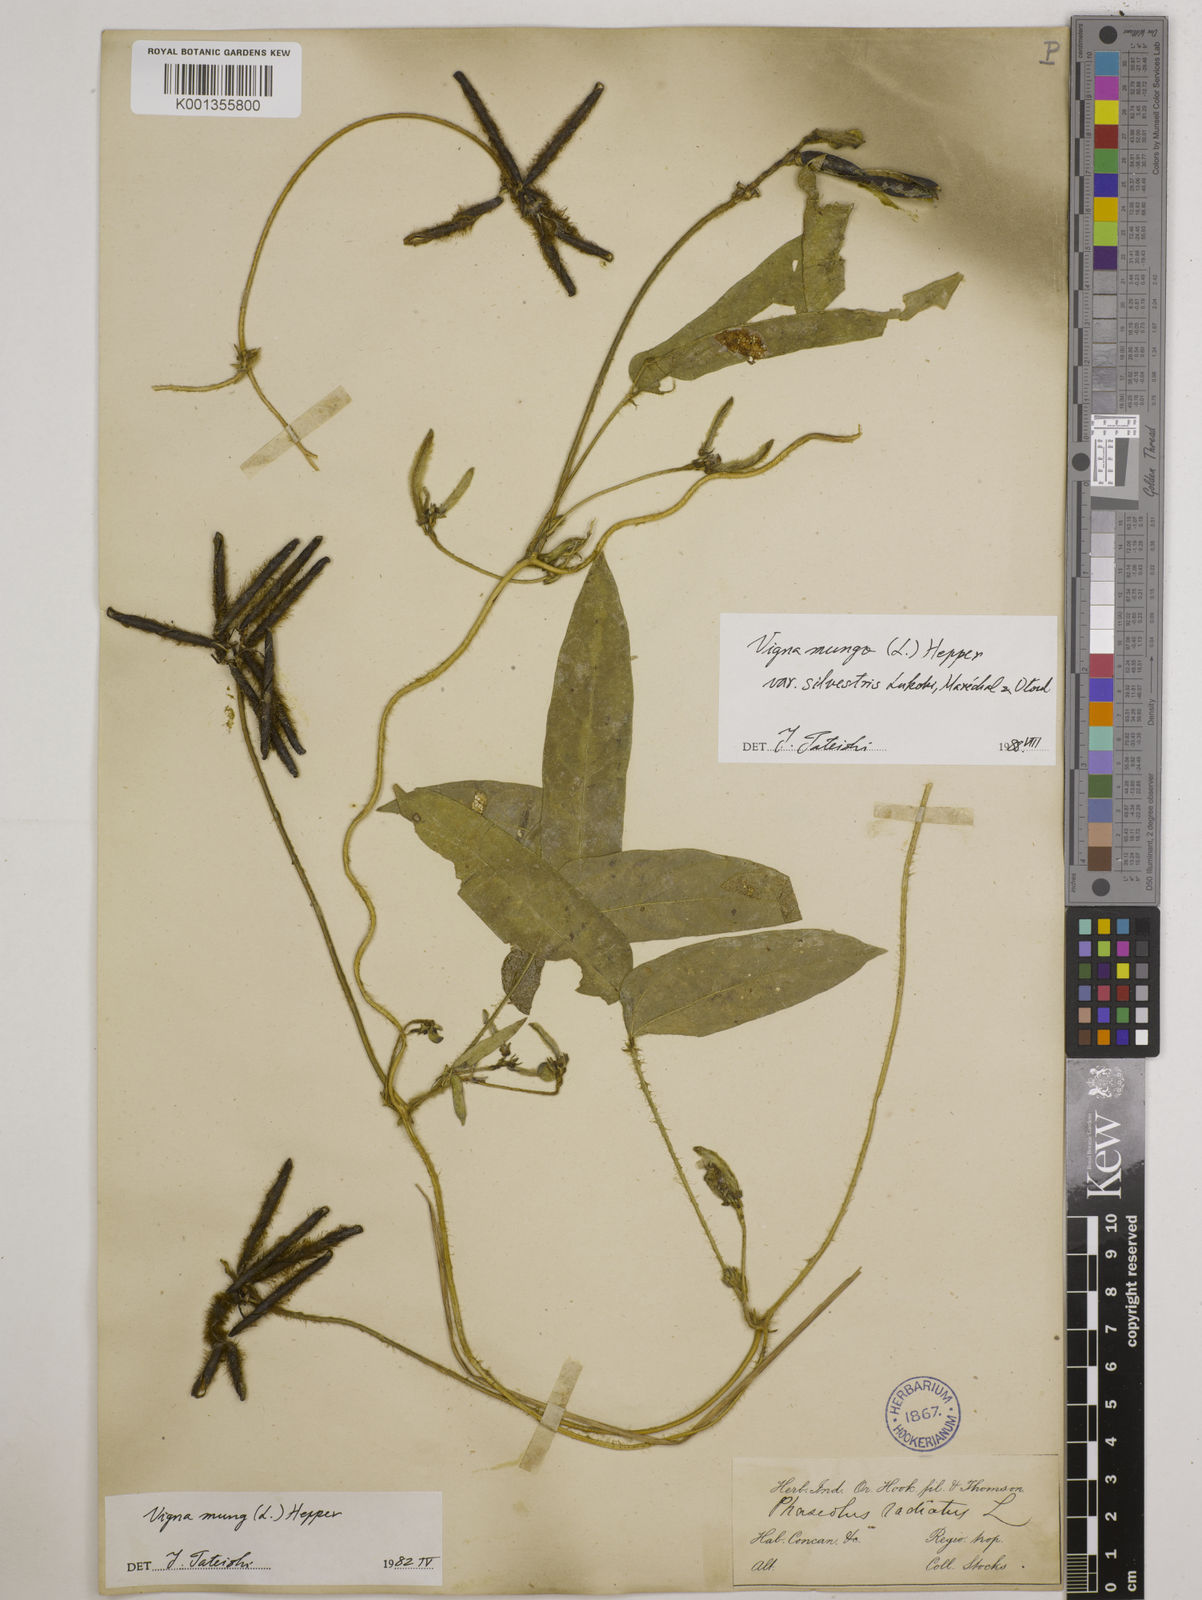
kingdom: Plantae
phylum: Tracheophyta
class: Magnoliopsida
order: Fabales
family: Fabaceae
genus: Vigna
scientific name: Vigna mungo
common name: Black gram
